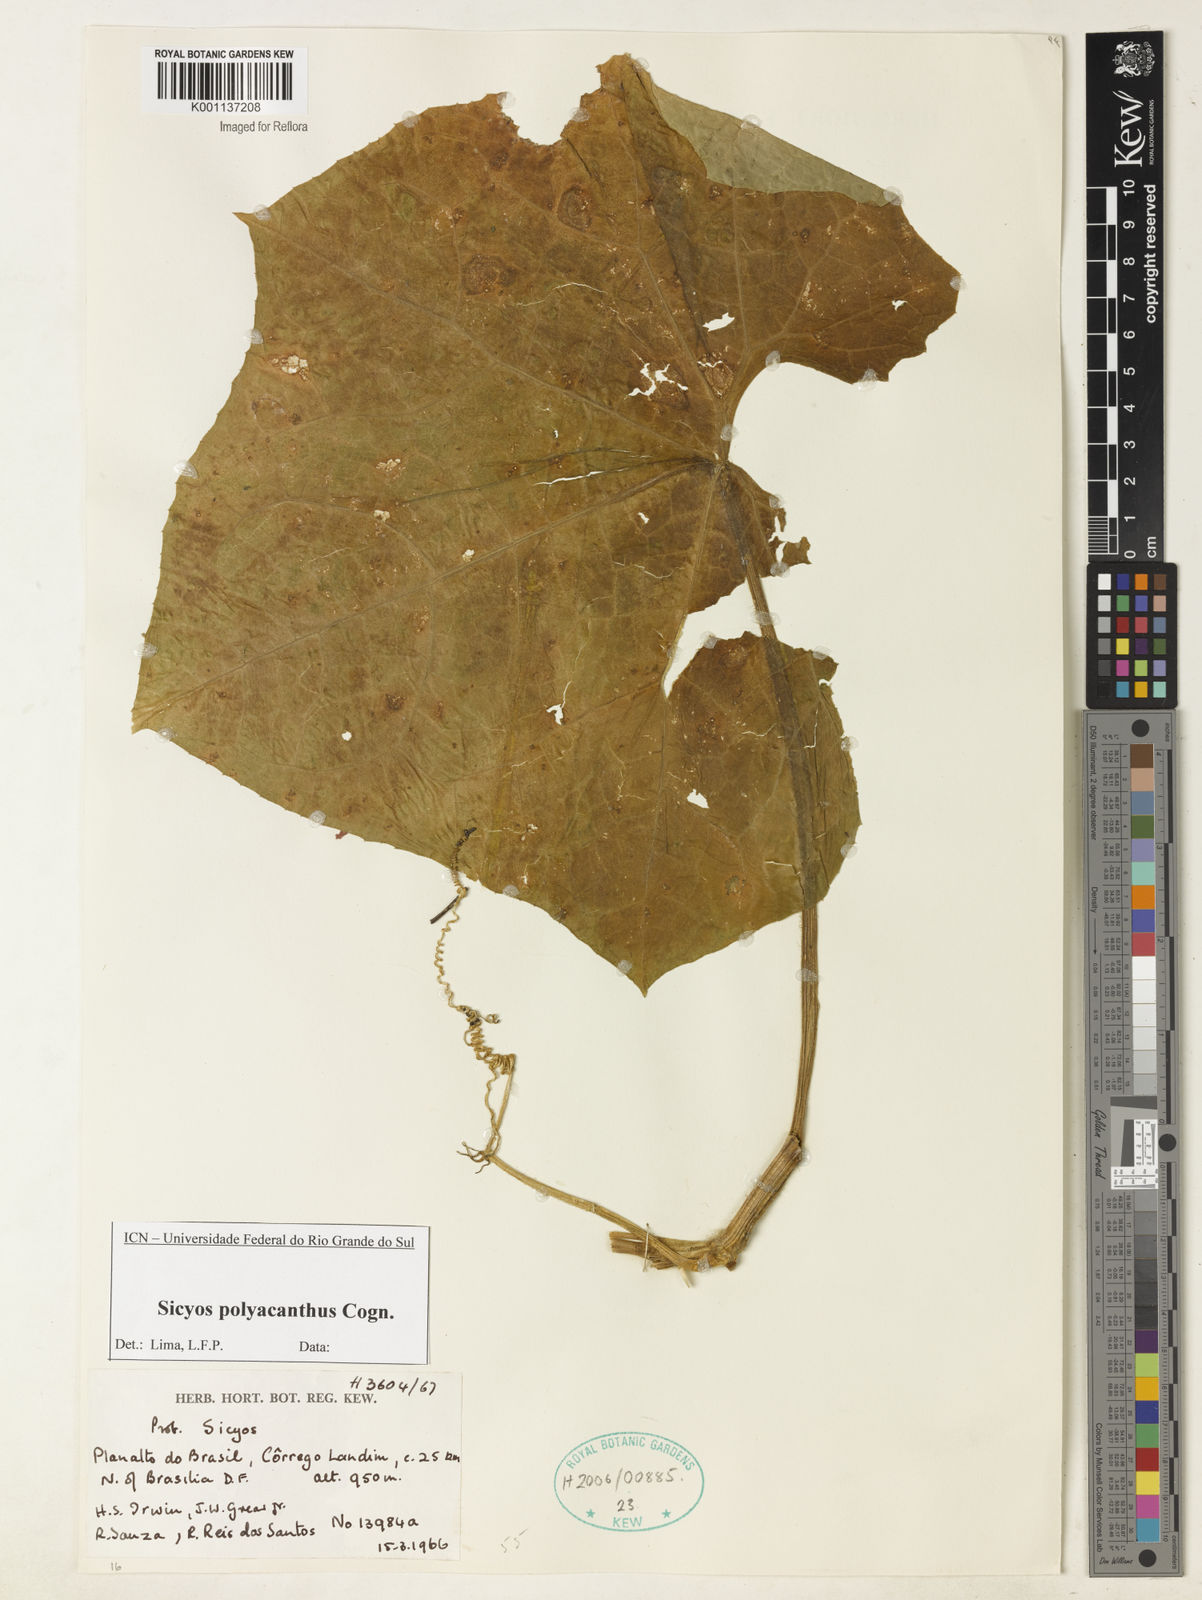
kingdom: Plantae
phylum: Tracheophyta
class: Magnoliopsida
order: Cucurbitales
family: Cucurbitaceae
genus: Sicyos
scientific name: Sicyos polyacanthos
